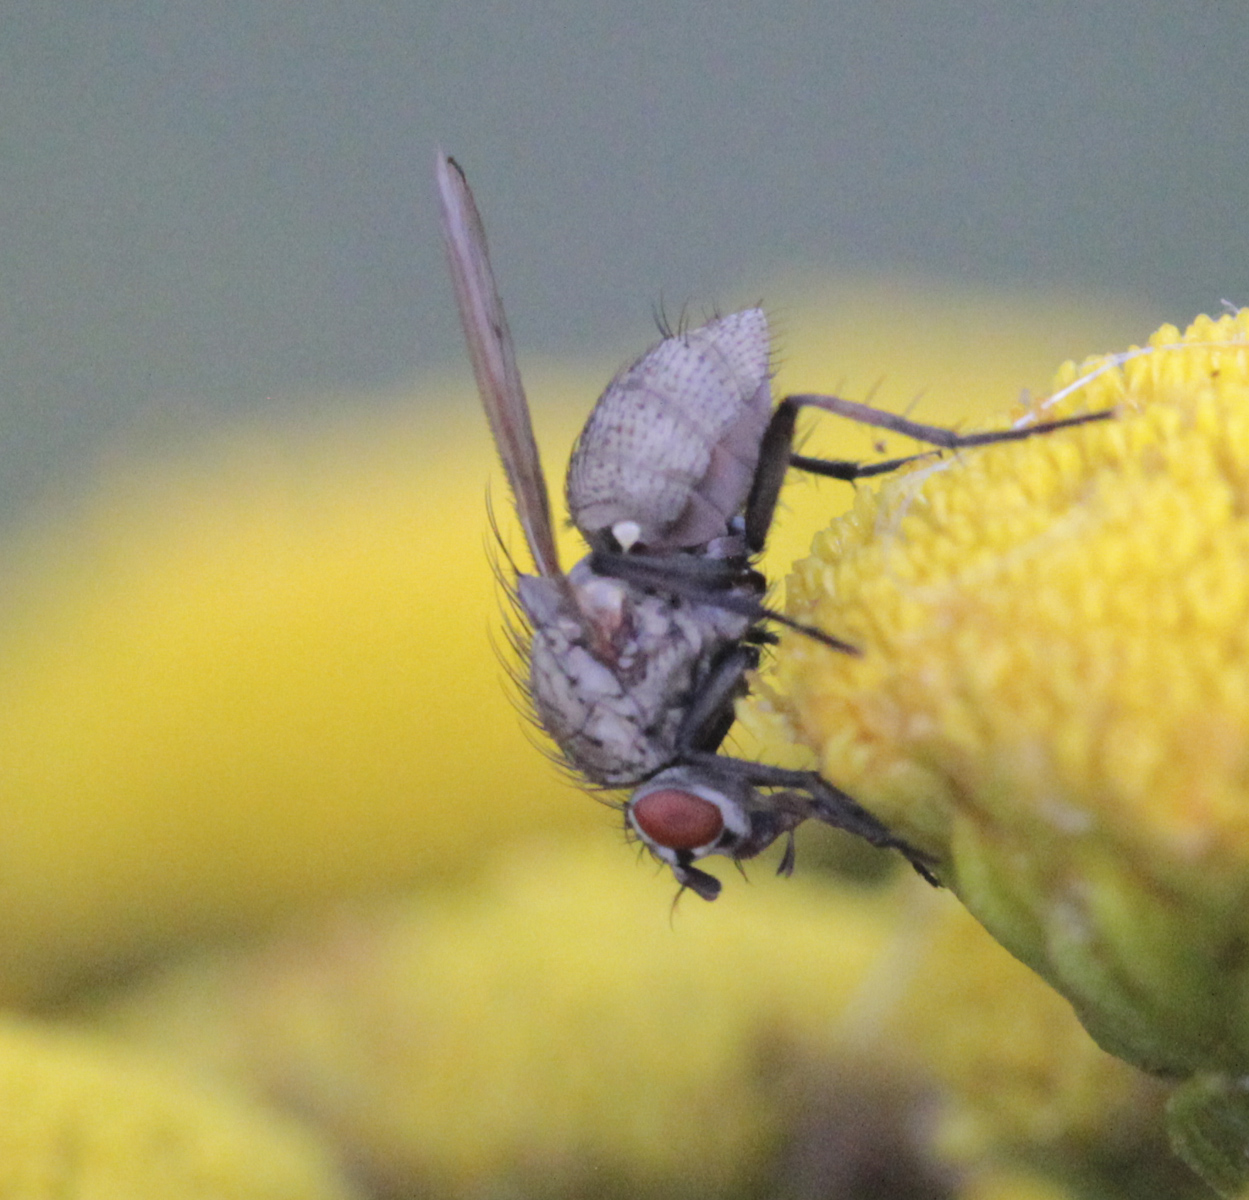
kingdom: Animalia
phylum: Arthropoda
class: Insecta
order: Diptera
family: Anthomyiidae
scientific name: Anthomyiidae
